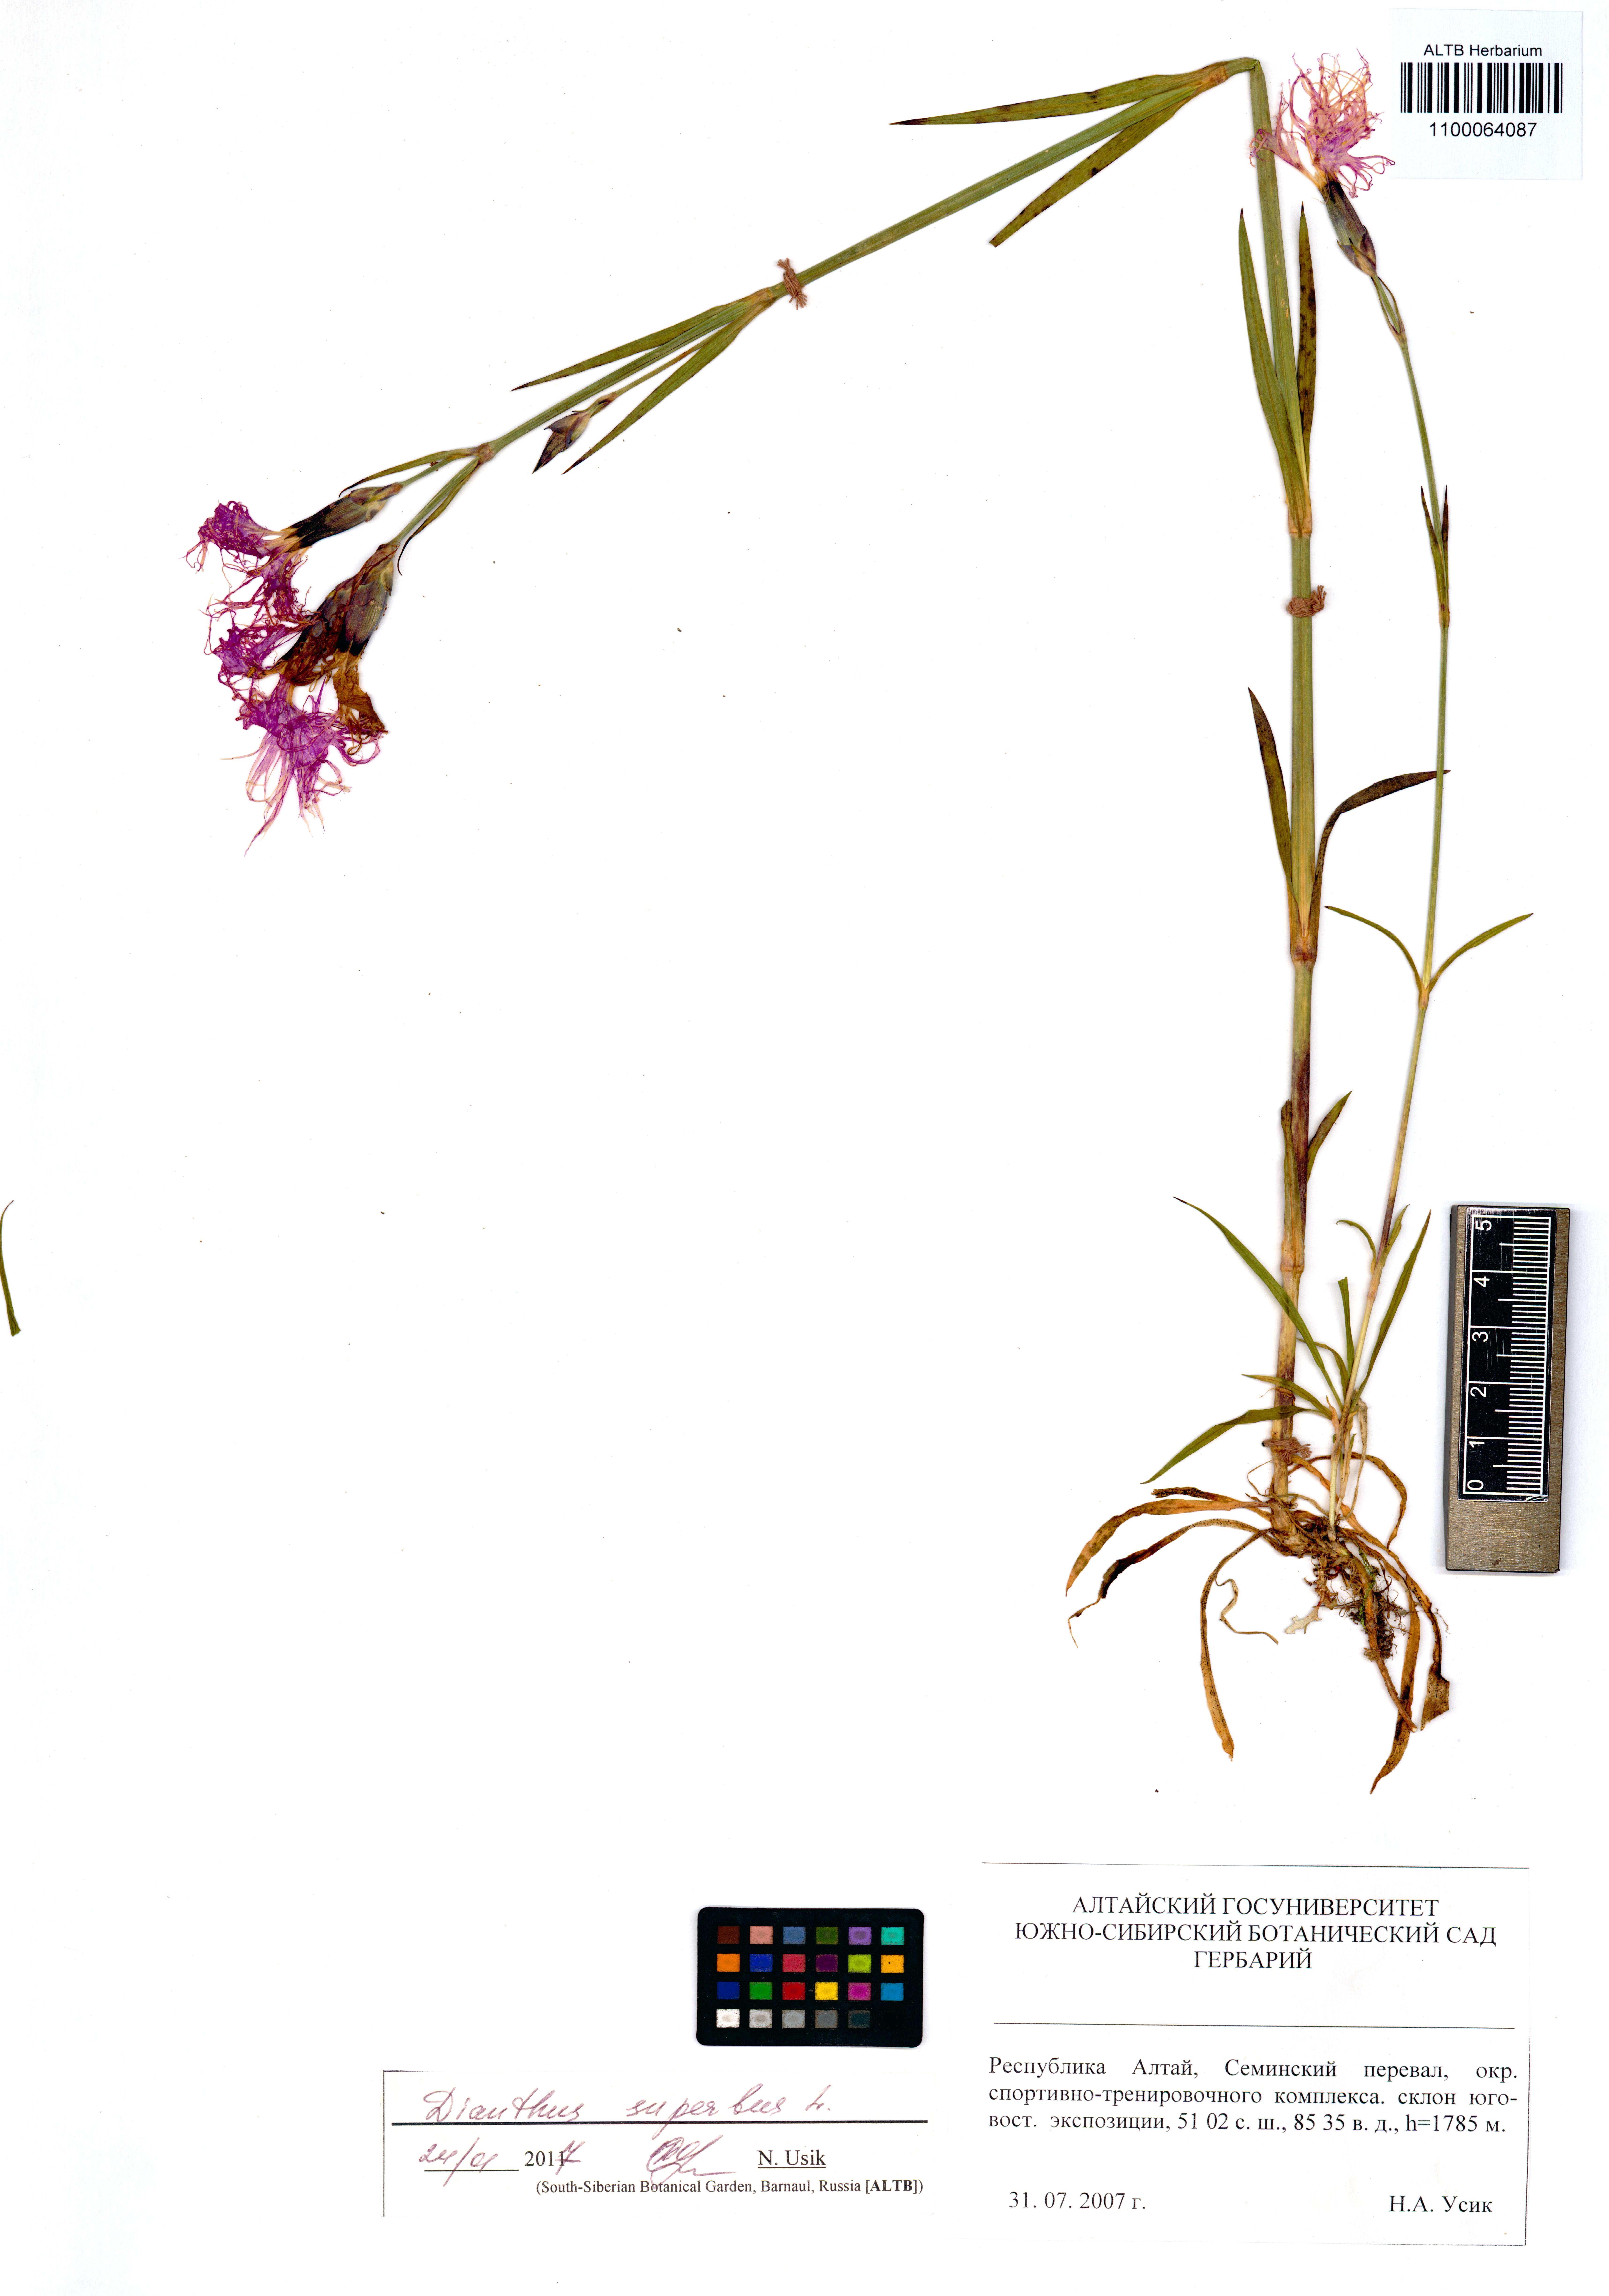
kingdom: Plantae
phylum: Tracheophyta
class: Magnoliopsida
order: Caryophyllales
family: Caryophyllaceae
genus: Dianthus
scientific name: Dianthus superbus
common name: Fringed pink
